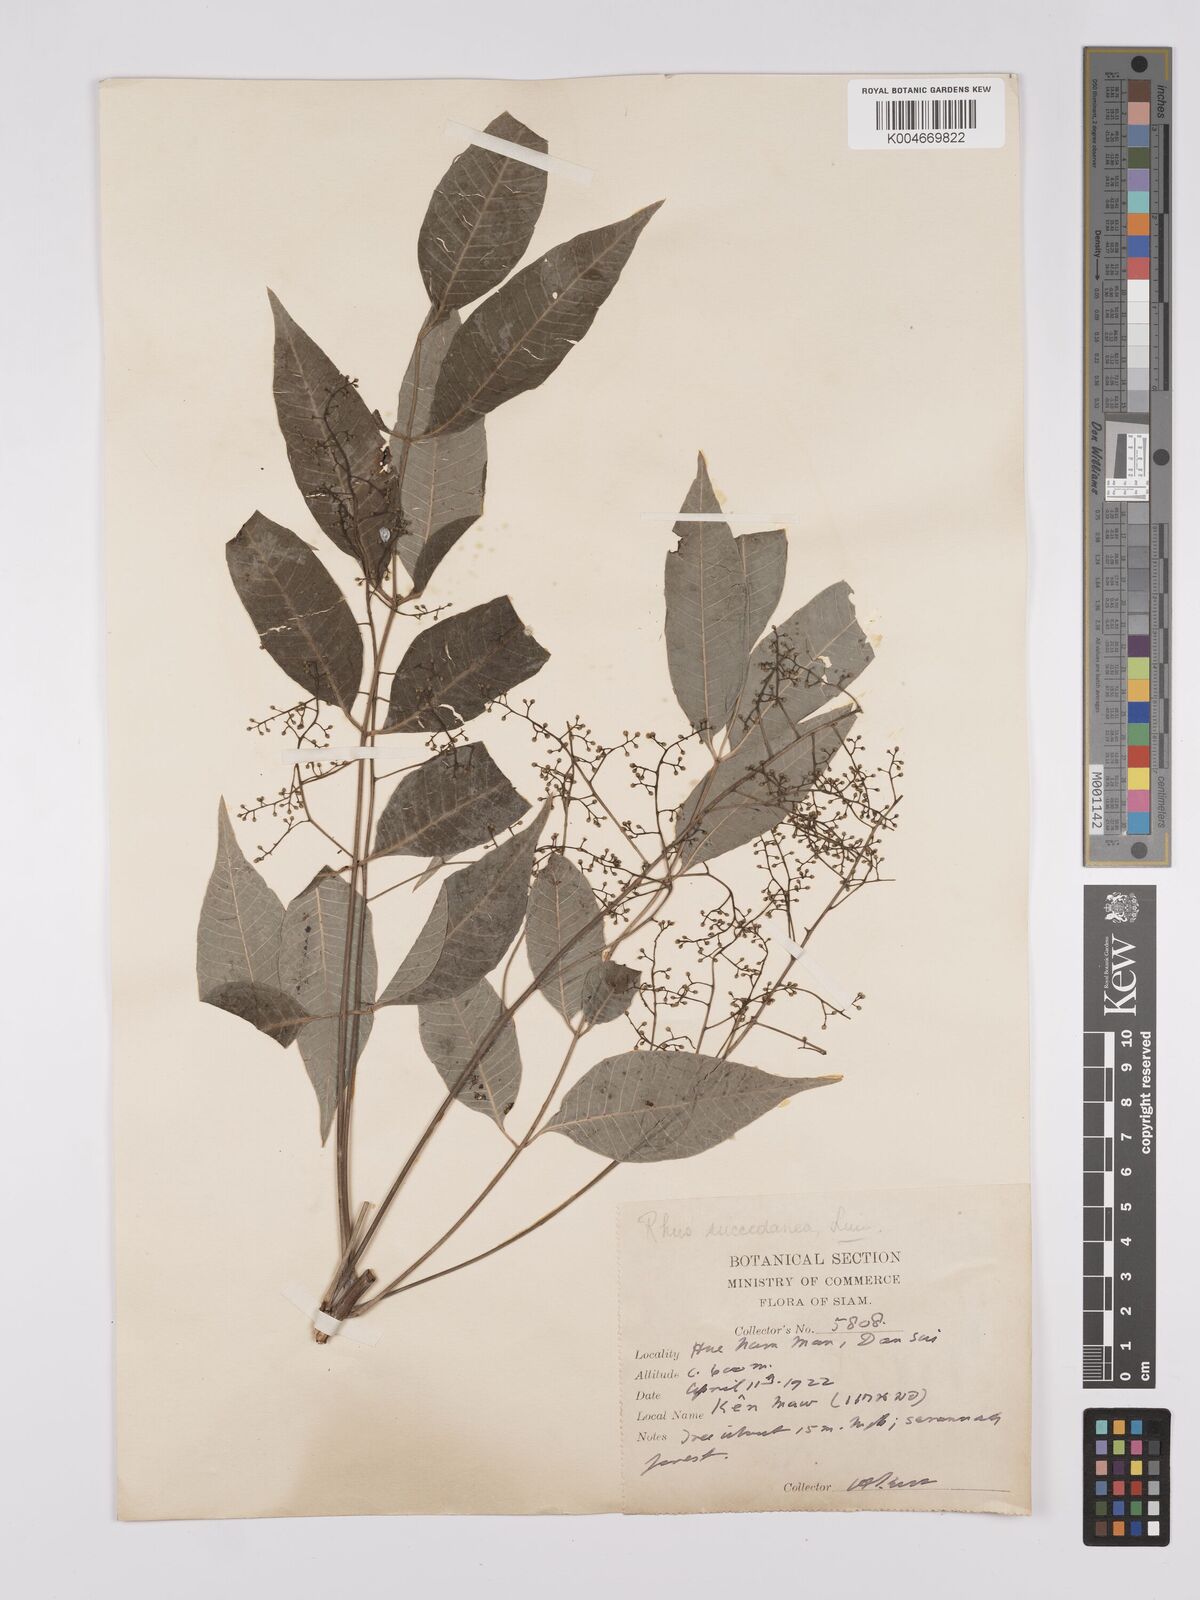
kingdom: Plantae
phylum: Tracheophyta
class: Magnoliopsida
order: Sapindales
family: Anacardiaceae
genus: Toxicodendron
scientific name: Toxicodendron succedaneum
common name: Wax tree
